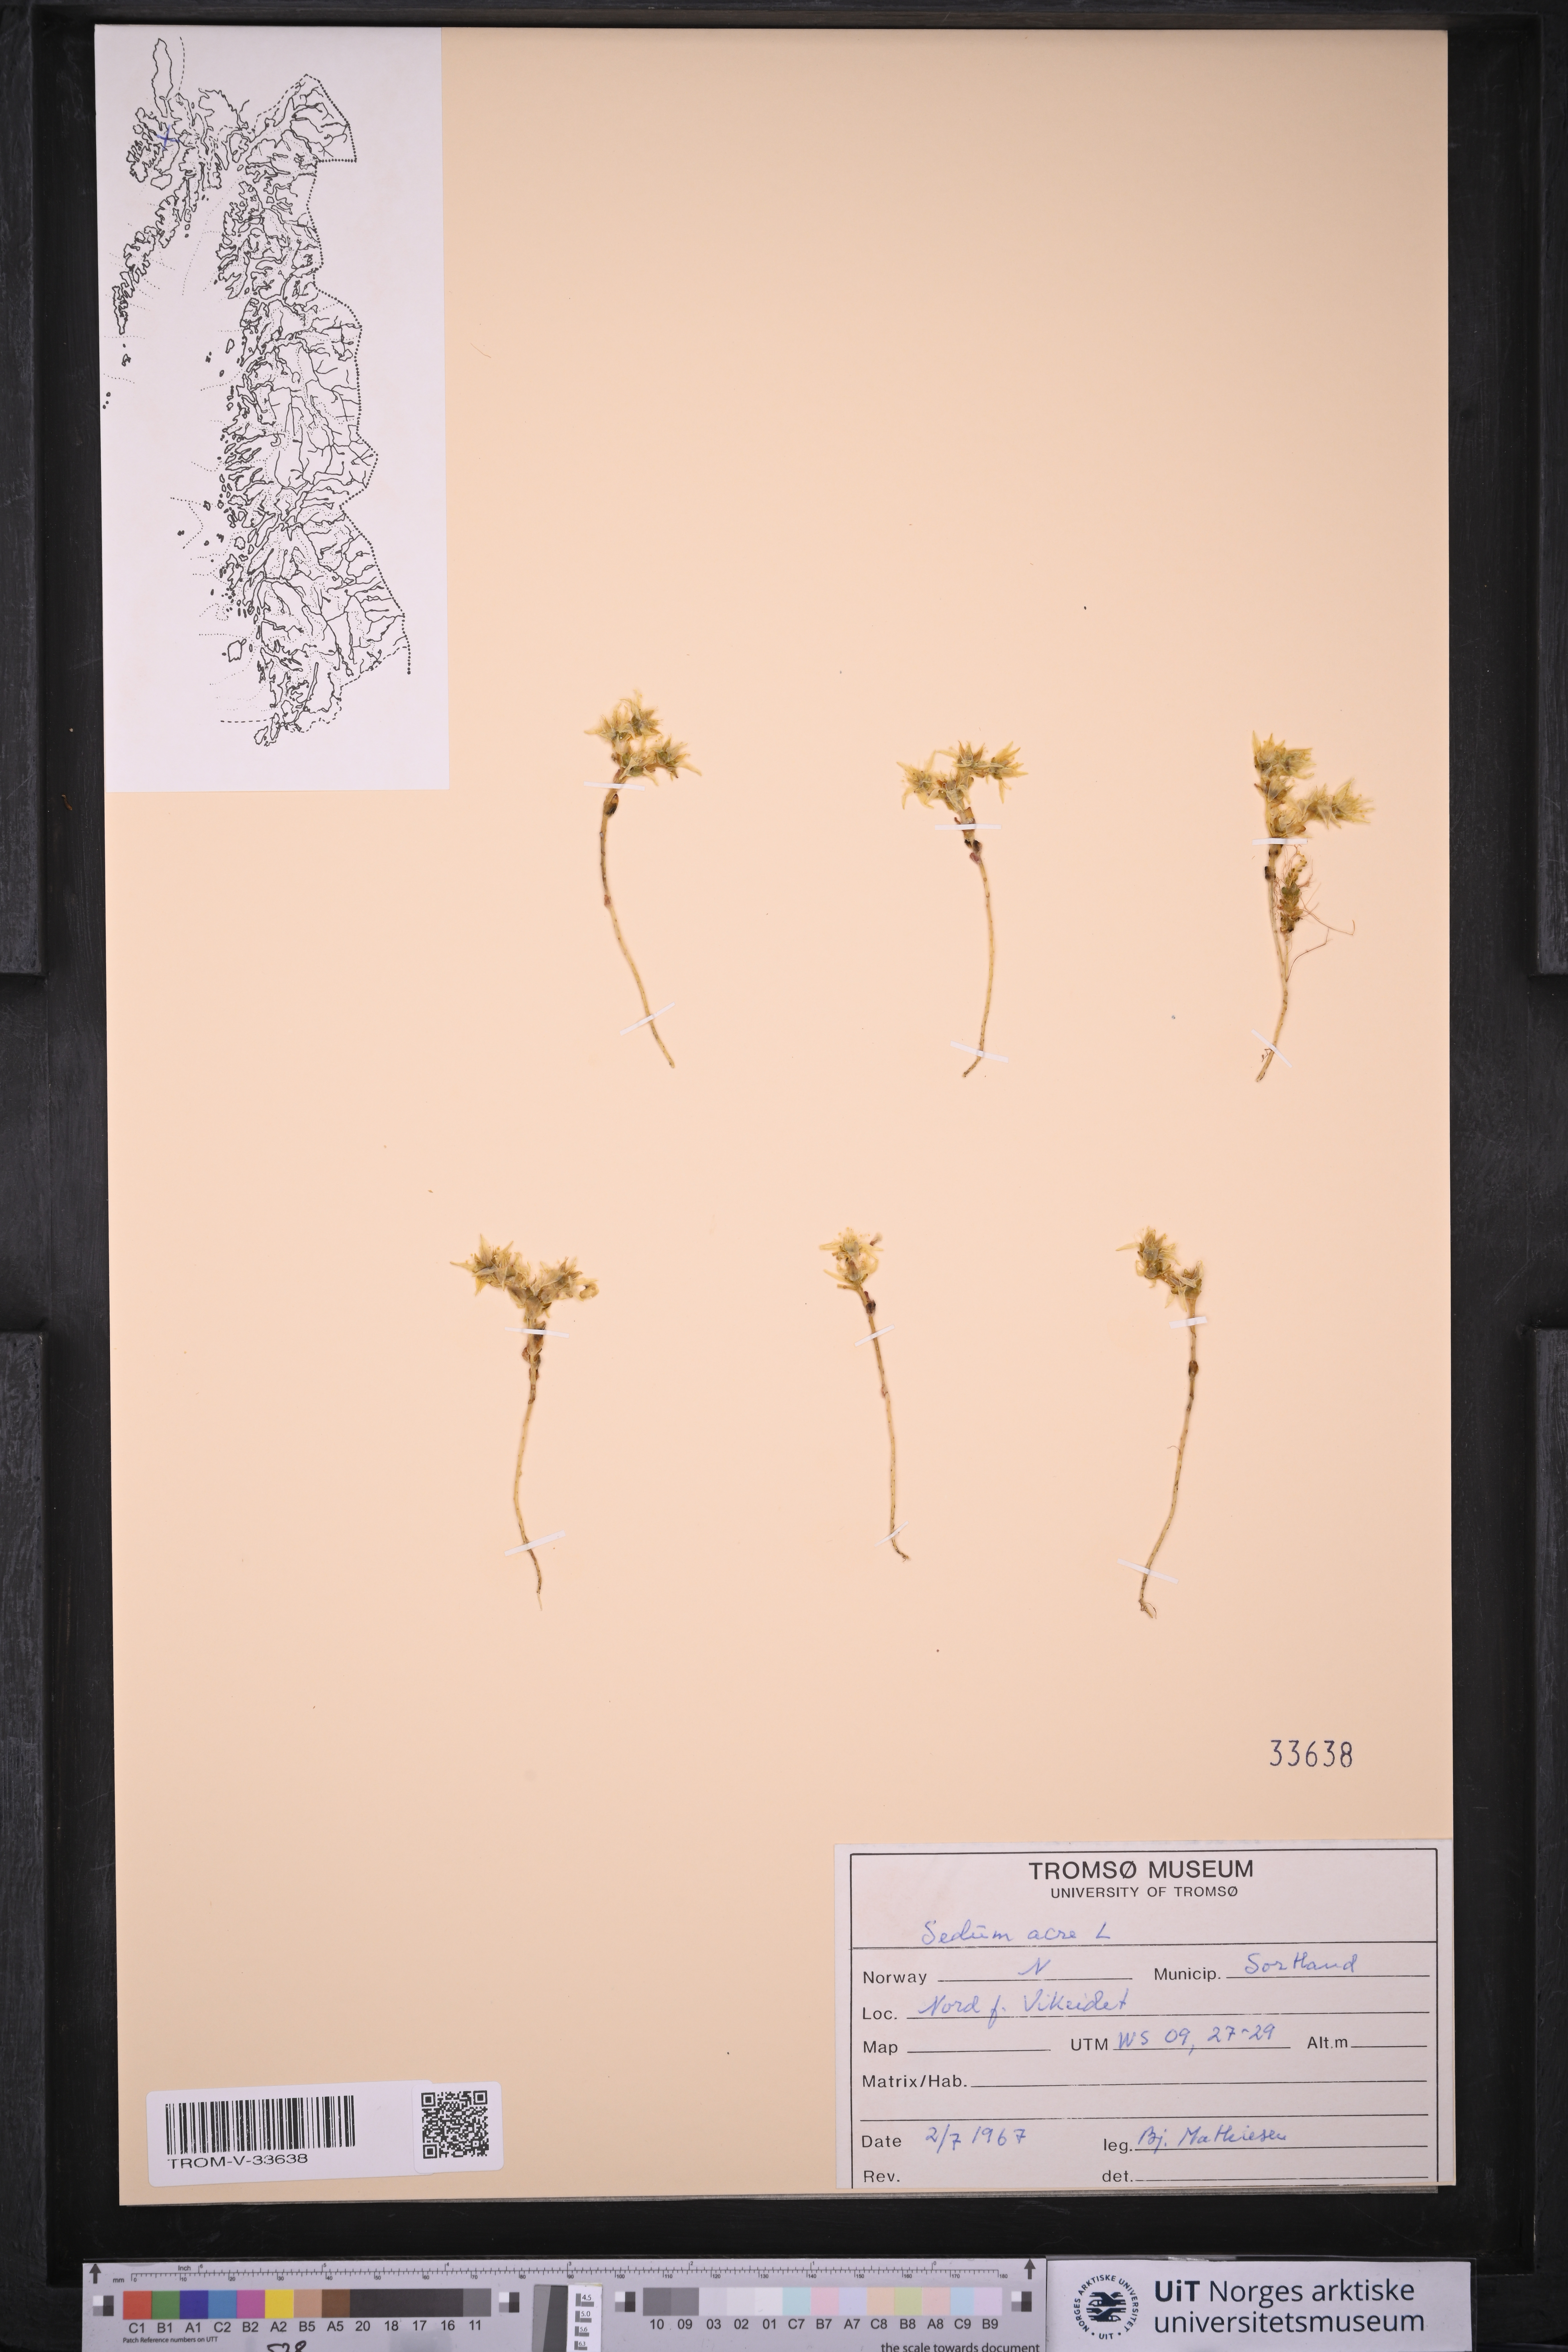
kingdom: Plantae
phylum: Tracheophyta
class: Magnoliopsida
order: Saxifragales
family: Crassulaceae
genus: Sedum
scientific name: Sedum acre
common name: Biting stonecrop
